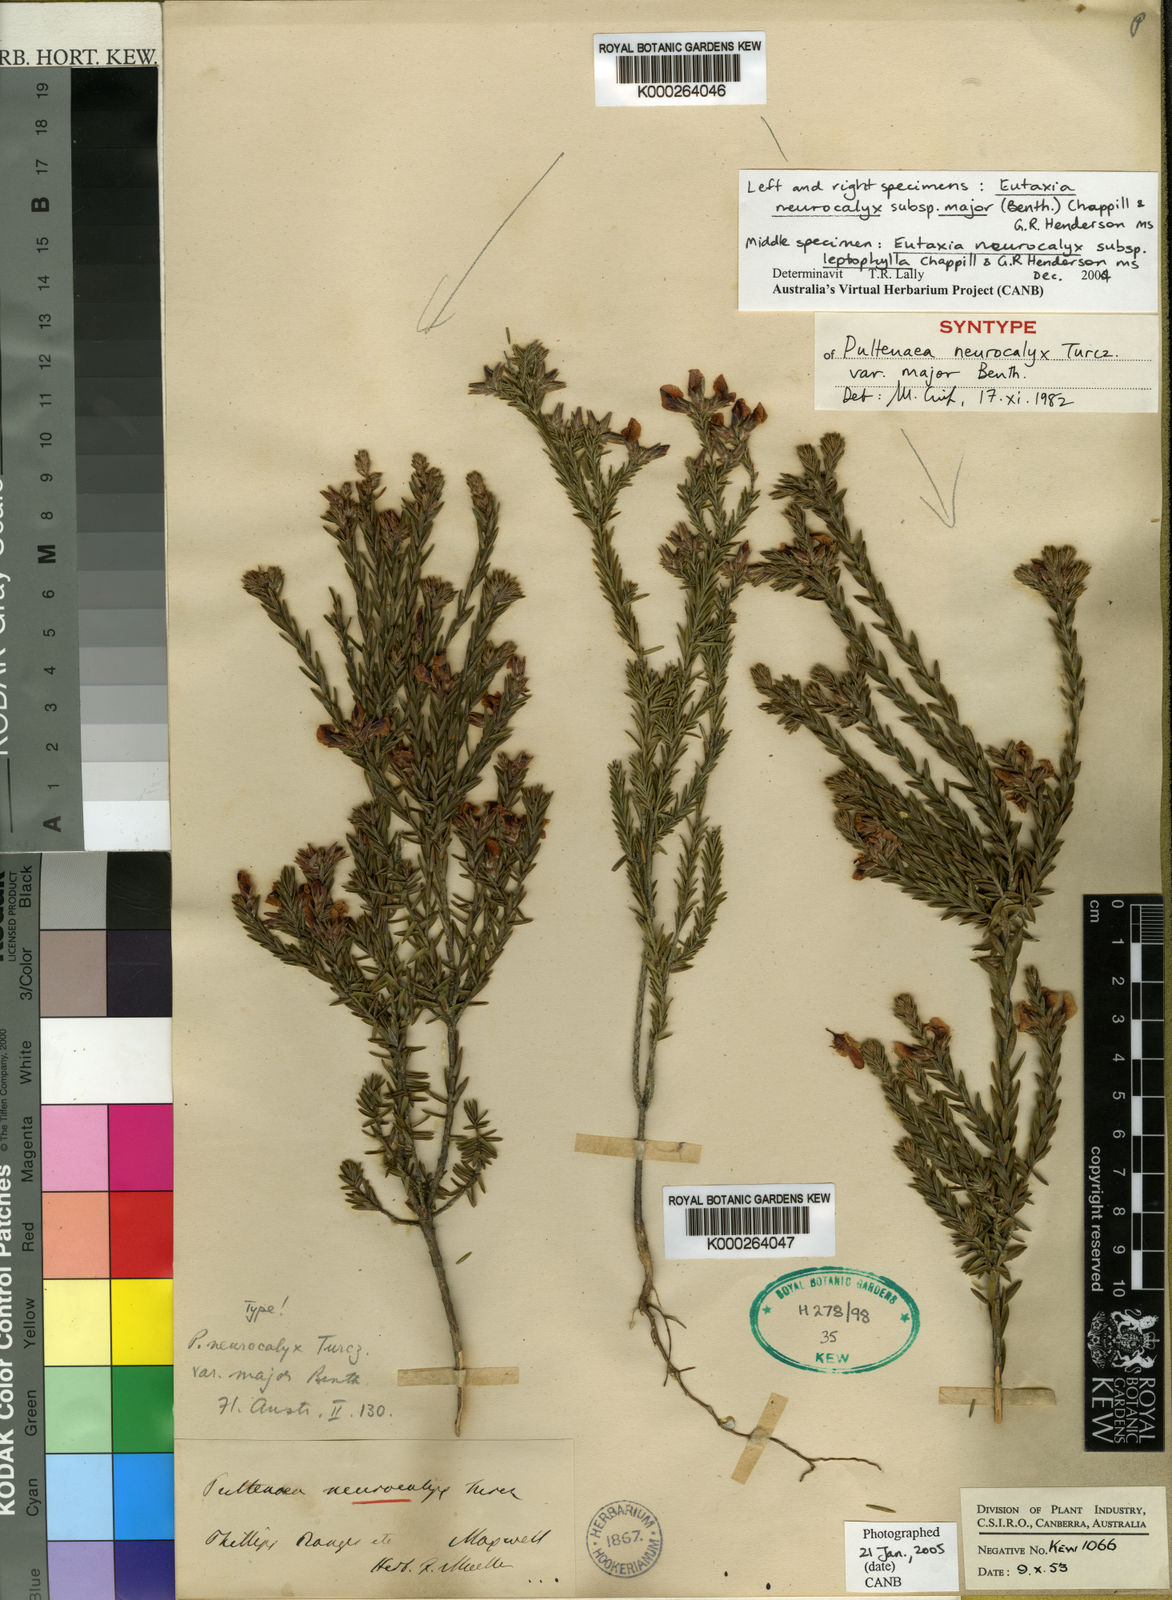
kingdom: Plantae
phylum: Tracheophyta
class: Magnoliopsida
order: Fabales
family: Fabaceae
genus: Eutaxia
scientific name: Eutaxia neurocalyx
